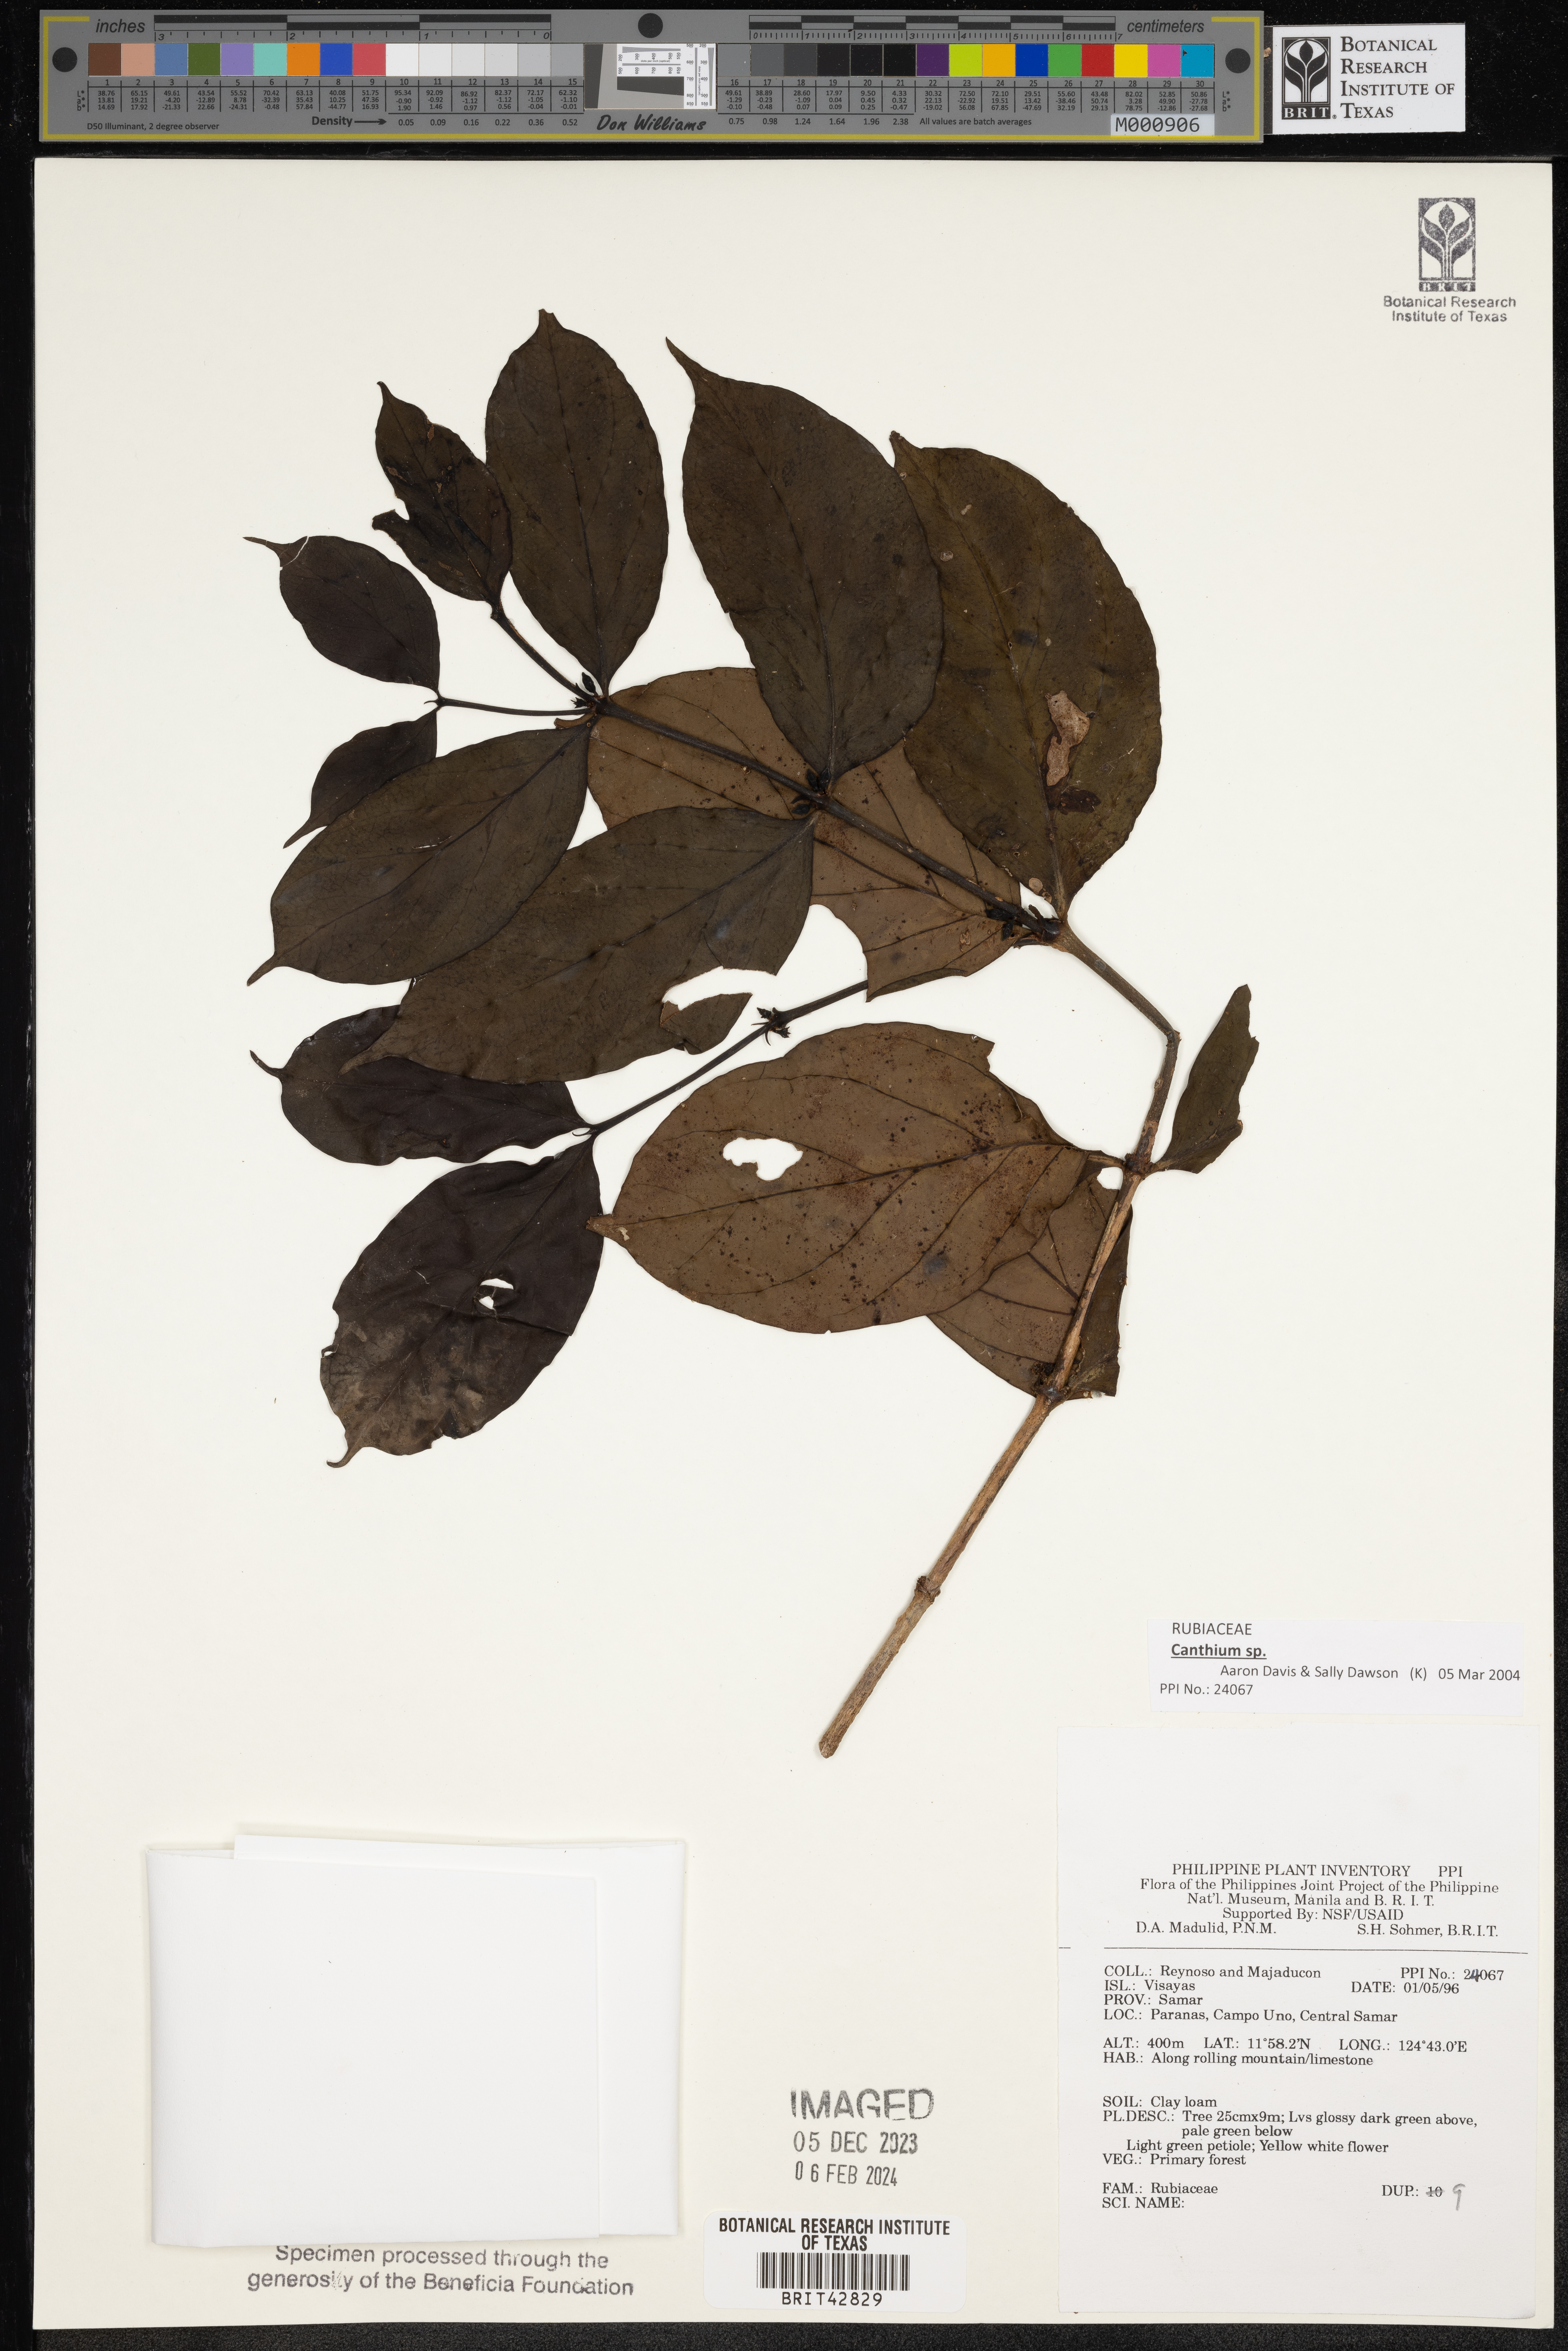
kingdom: Plantae
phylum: Tracheophyta
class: Magnoliopsida
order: Gentianales
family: Rubiaceae
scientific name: Rubiaceae
